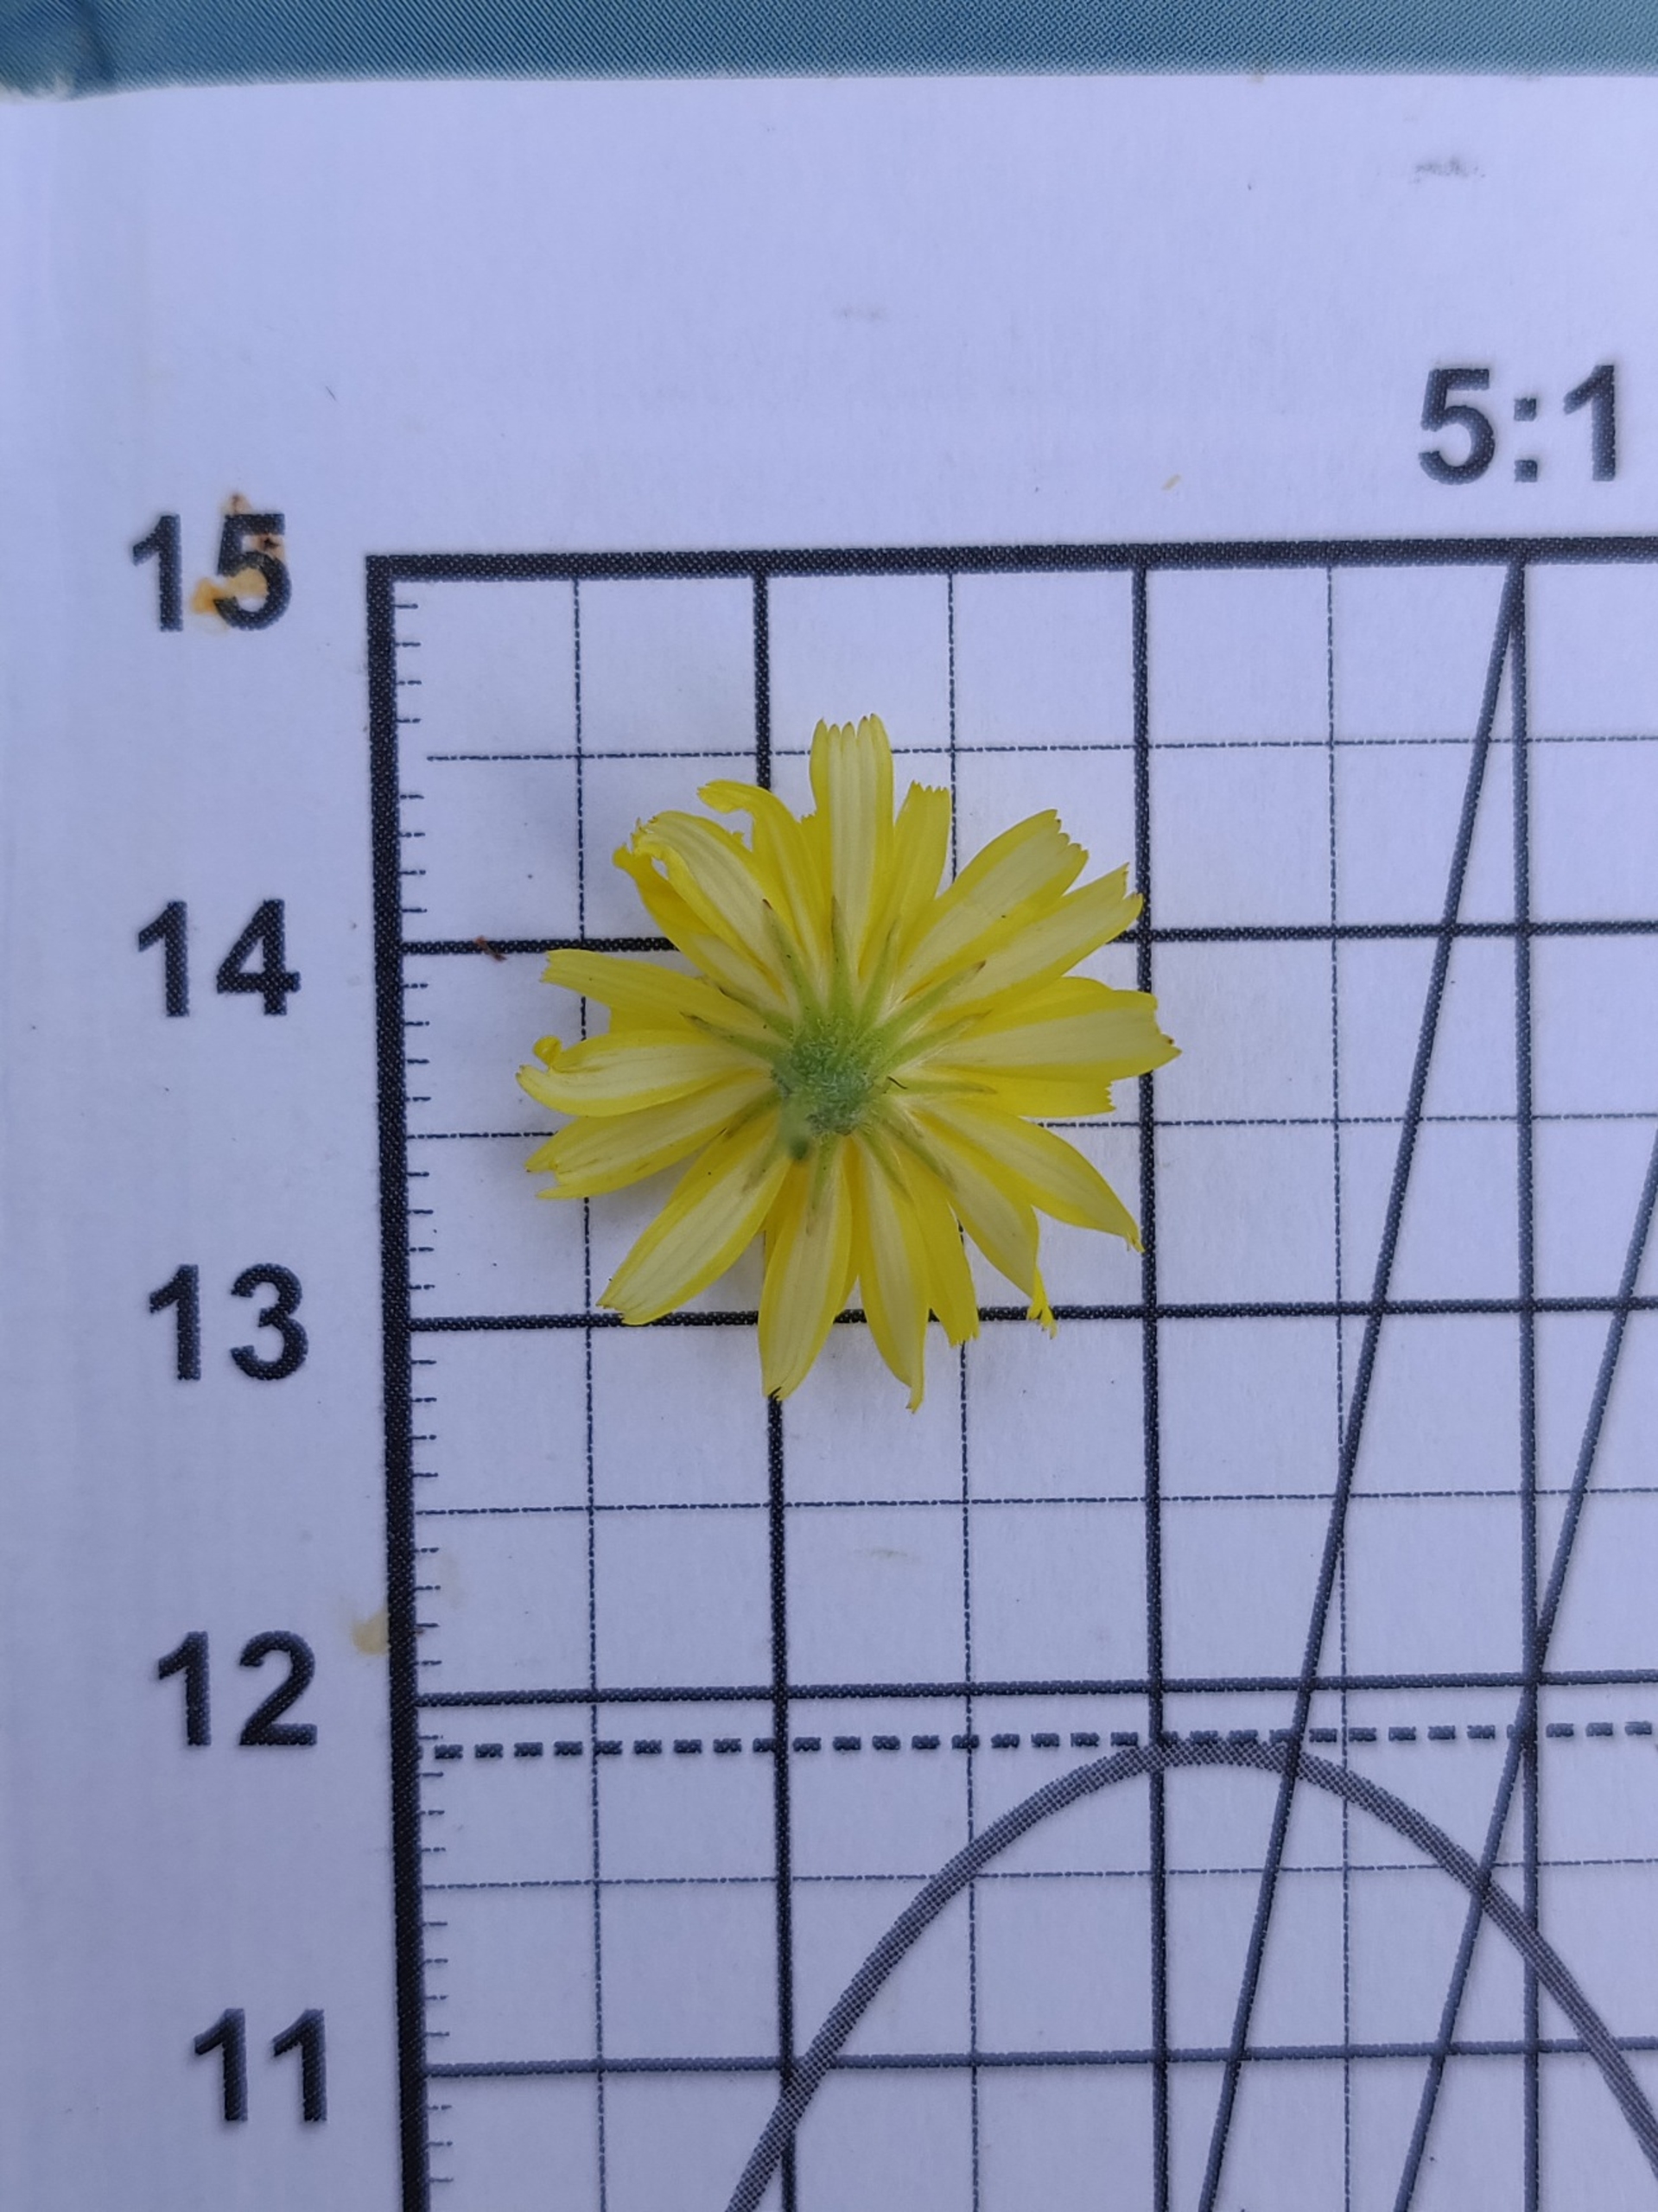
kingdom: Plantae
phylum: Tracheophyta
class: Magnoliopsida
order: Asterales
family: Asteraceae
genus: Crepis
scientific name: Crepis capillaris
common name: Grøn høgeskæg
